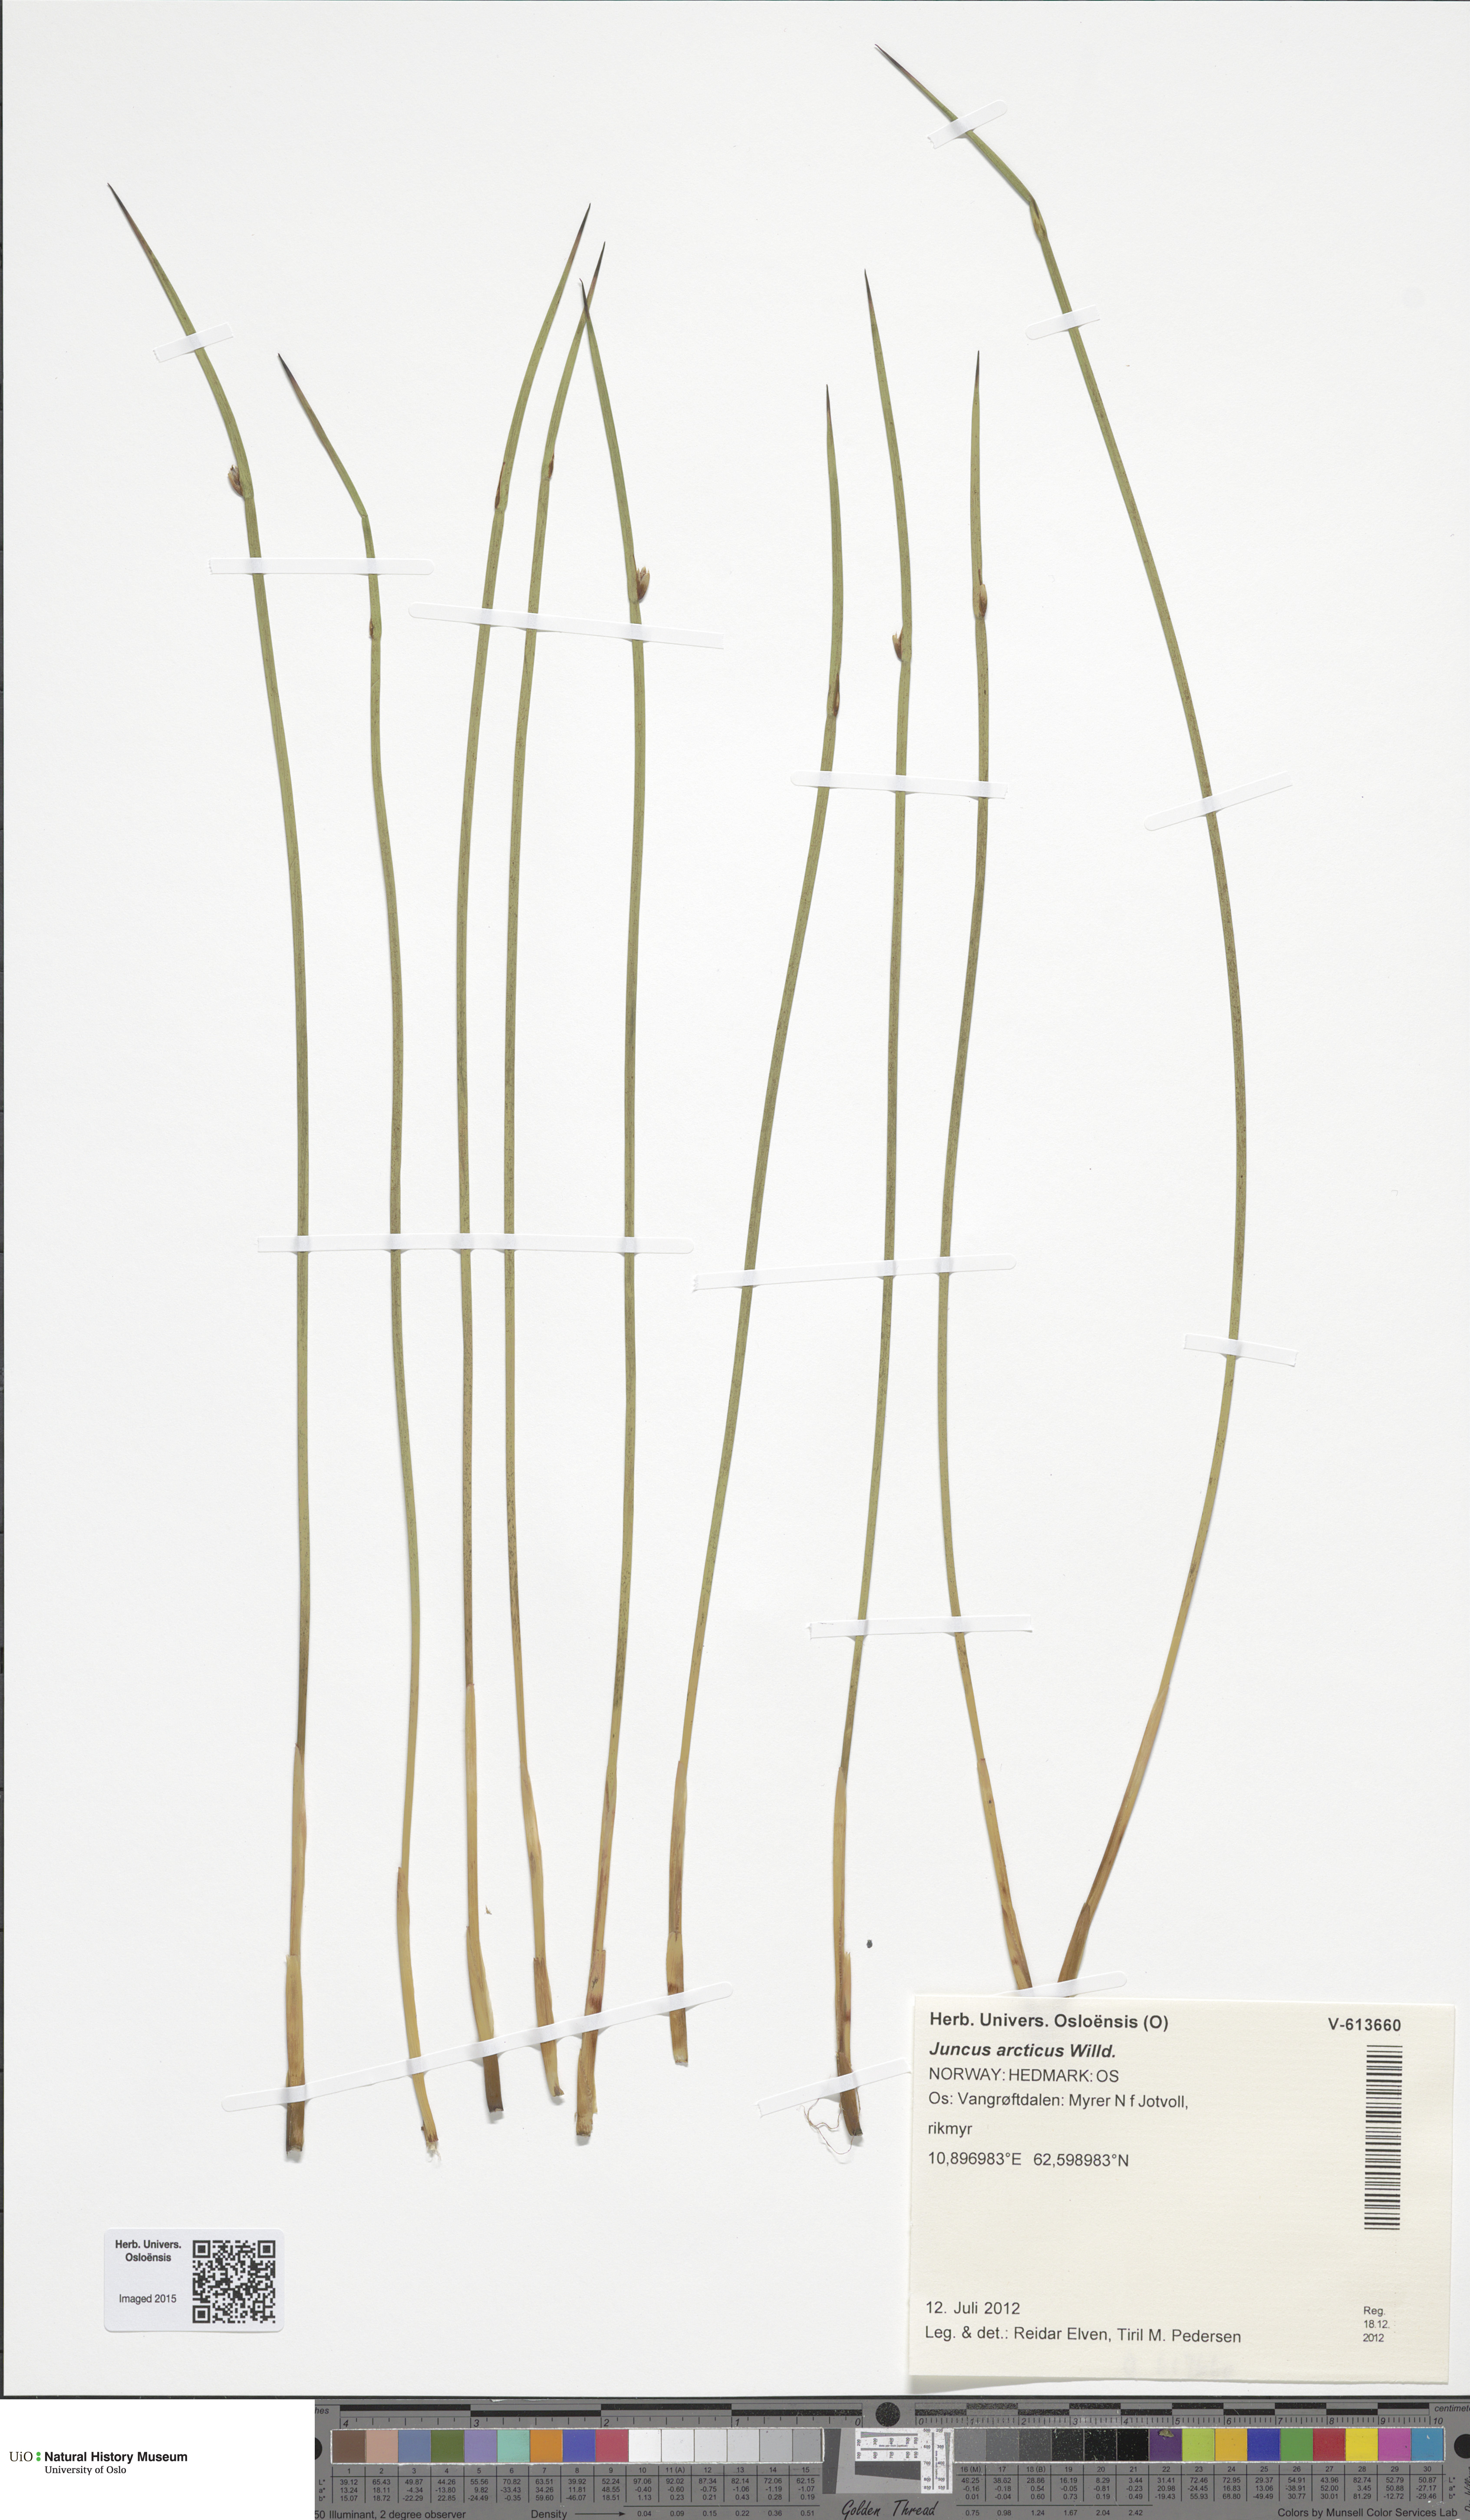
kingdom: Plantae
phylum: Tracheophyta
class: Liliopsida
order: Poales
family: Juncaceae
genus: Juncus
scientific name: Juncus arcticus
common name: Arctic rush
